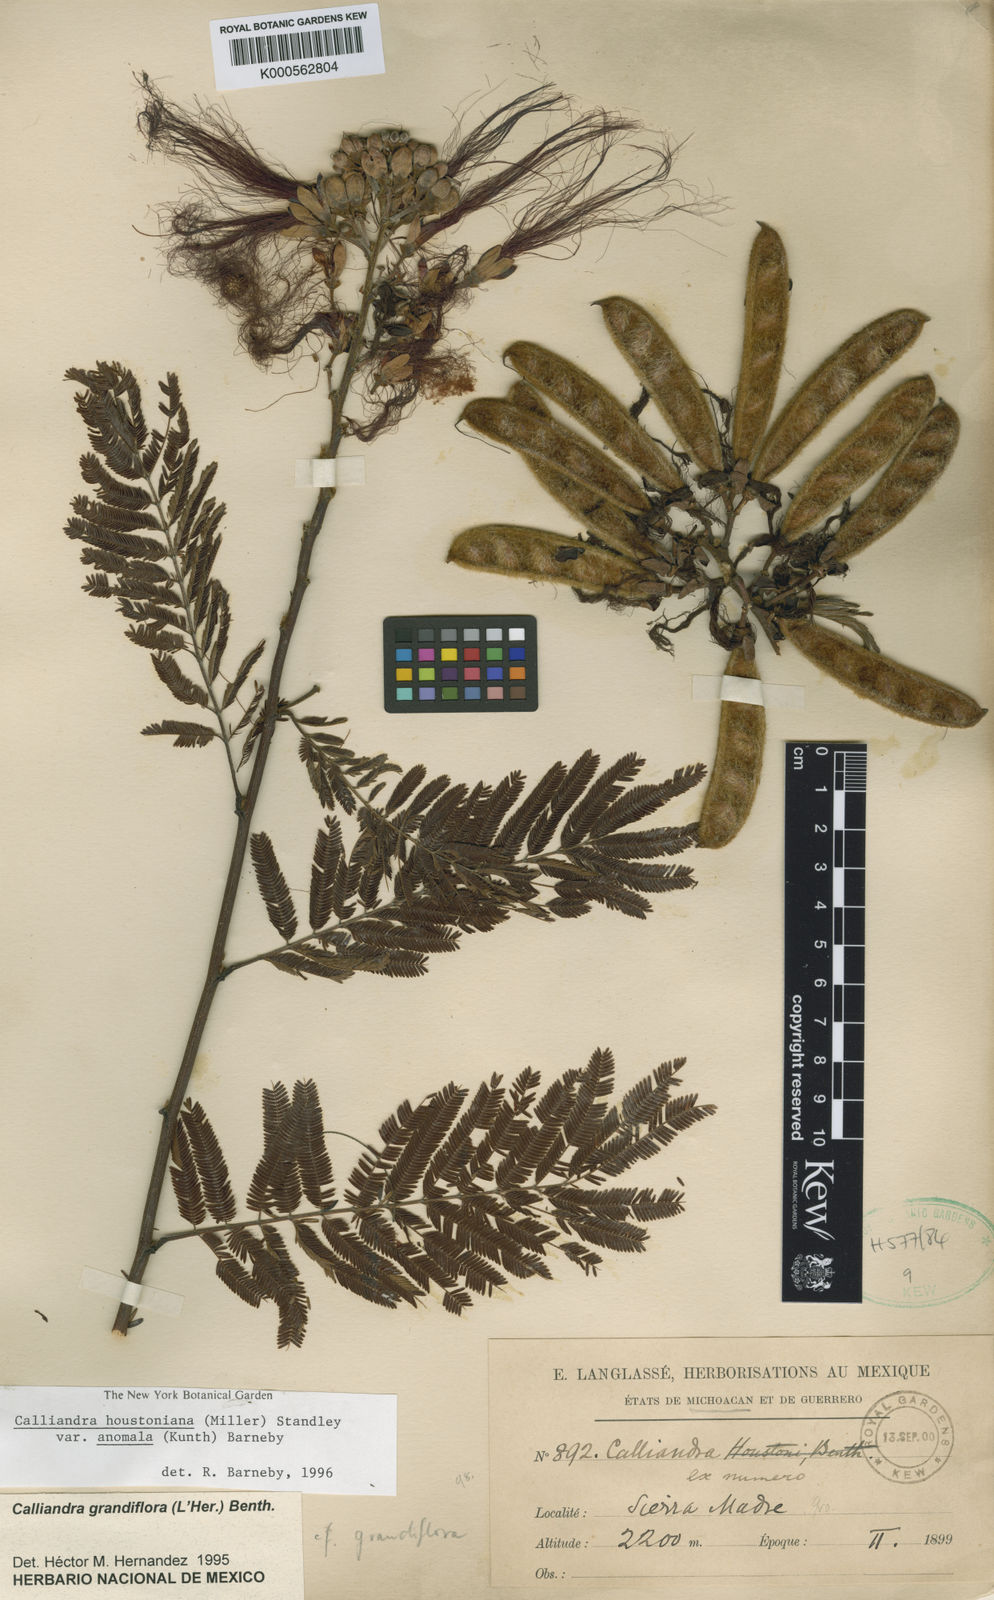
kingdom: Plantae
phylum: Tracheophyta
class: Magnoliopsida
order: Fabales
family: Fabaceae
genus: Calliandra
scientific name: Calliandra houstoniana
